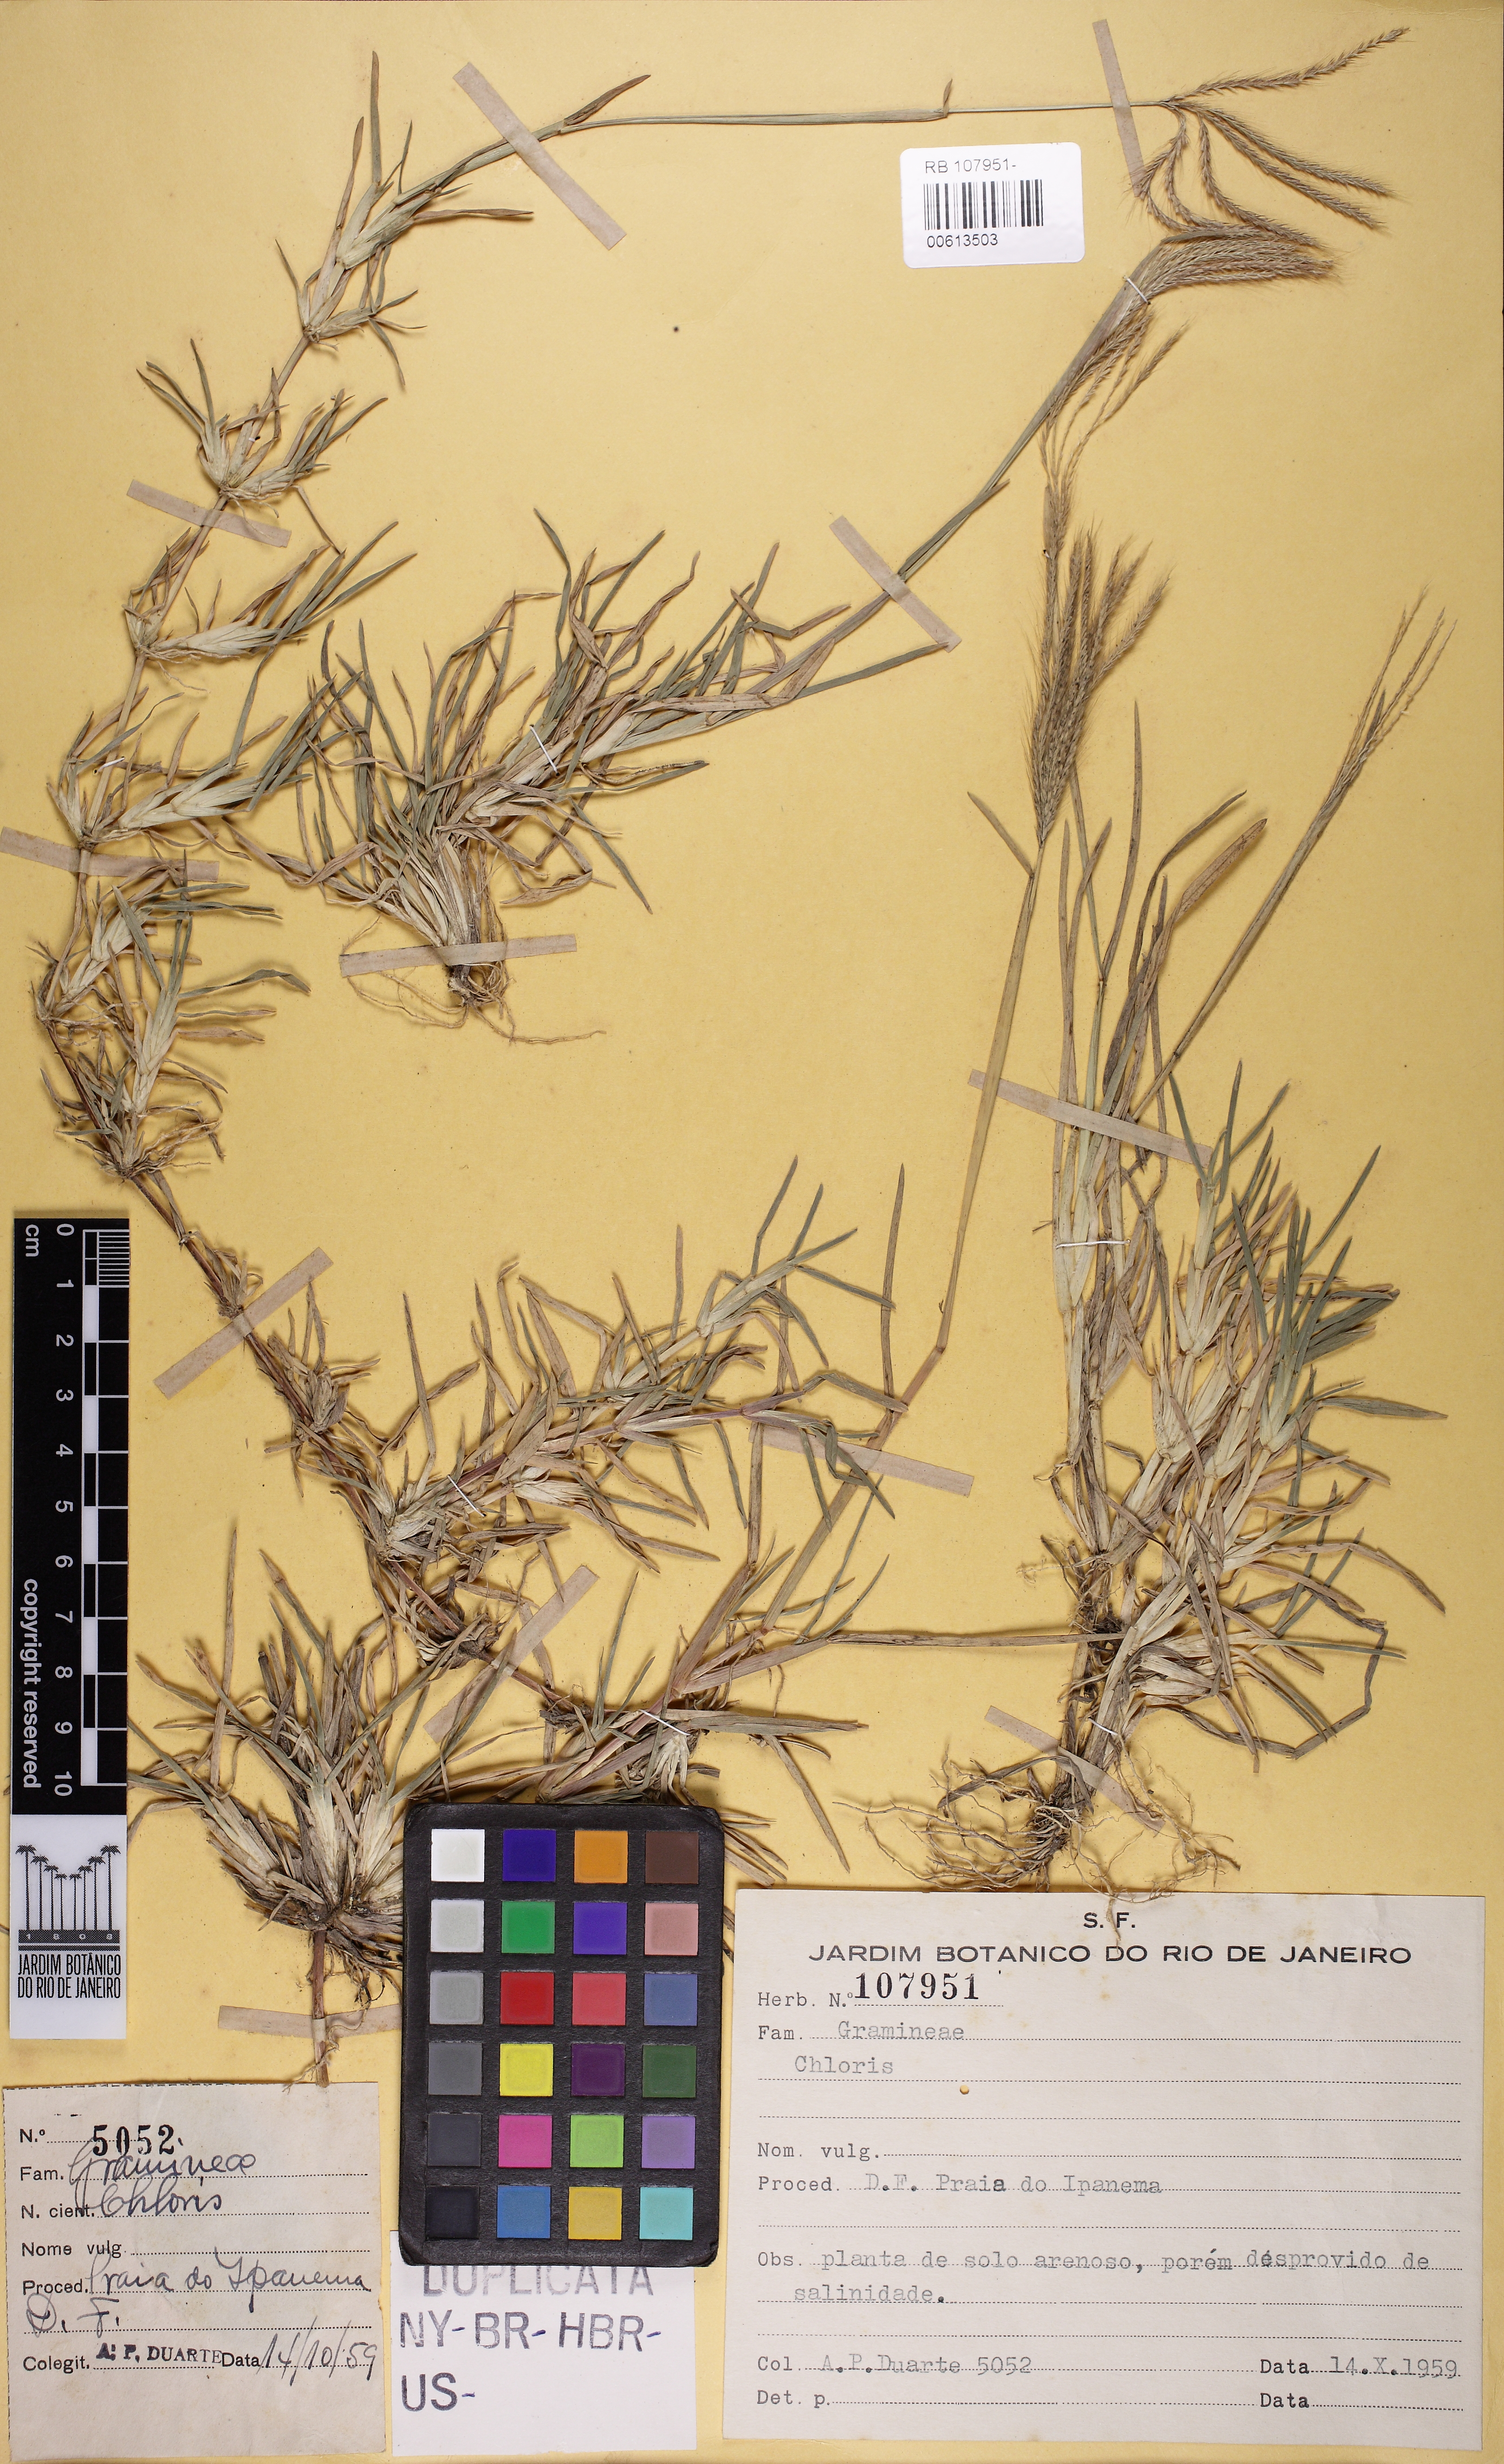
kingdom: Plantae
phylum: Tracheophyta
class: Liliopsida
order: Poales
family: Poaceae
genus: Chloris
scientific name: Chloris
